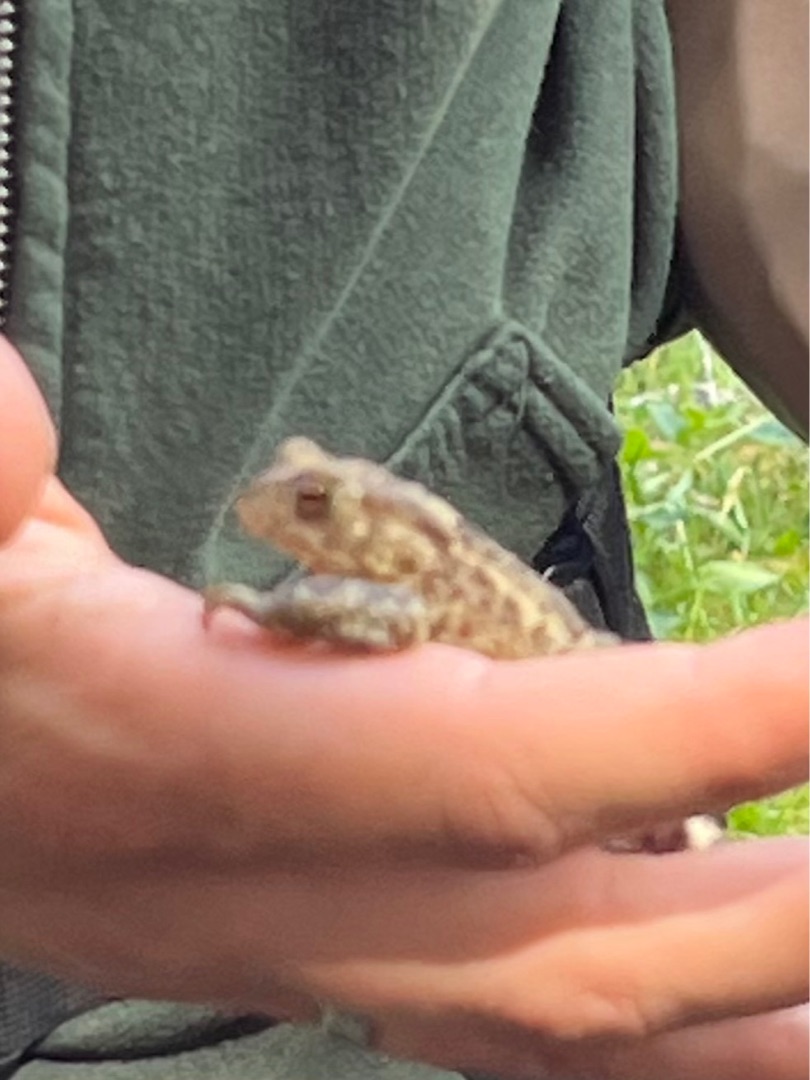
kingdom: Animalia
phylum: Chordata
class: Amphibia
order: Anura
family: Bufonidae
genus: Bufo
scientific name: Bufo bufo
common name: Skrubtudse
